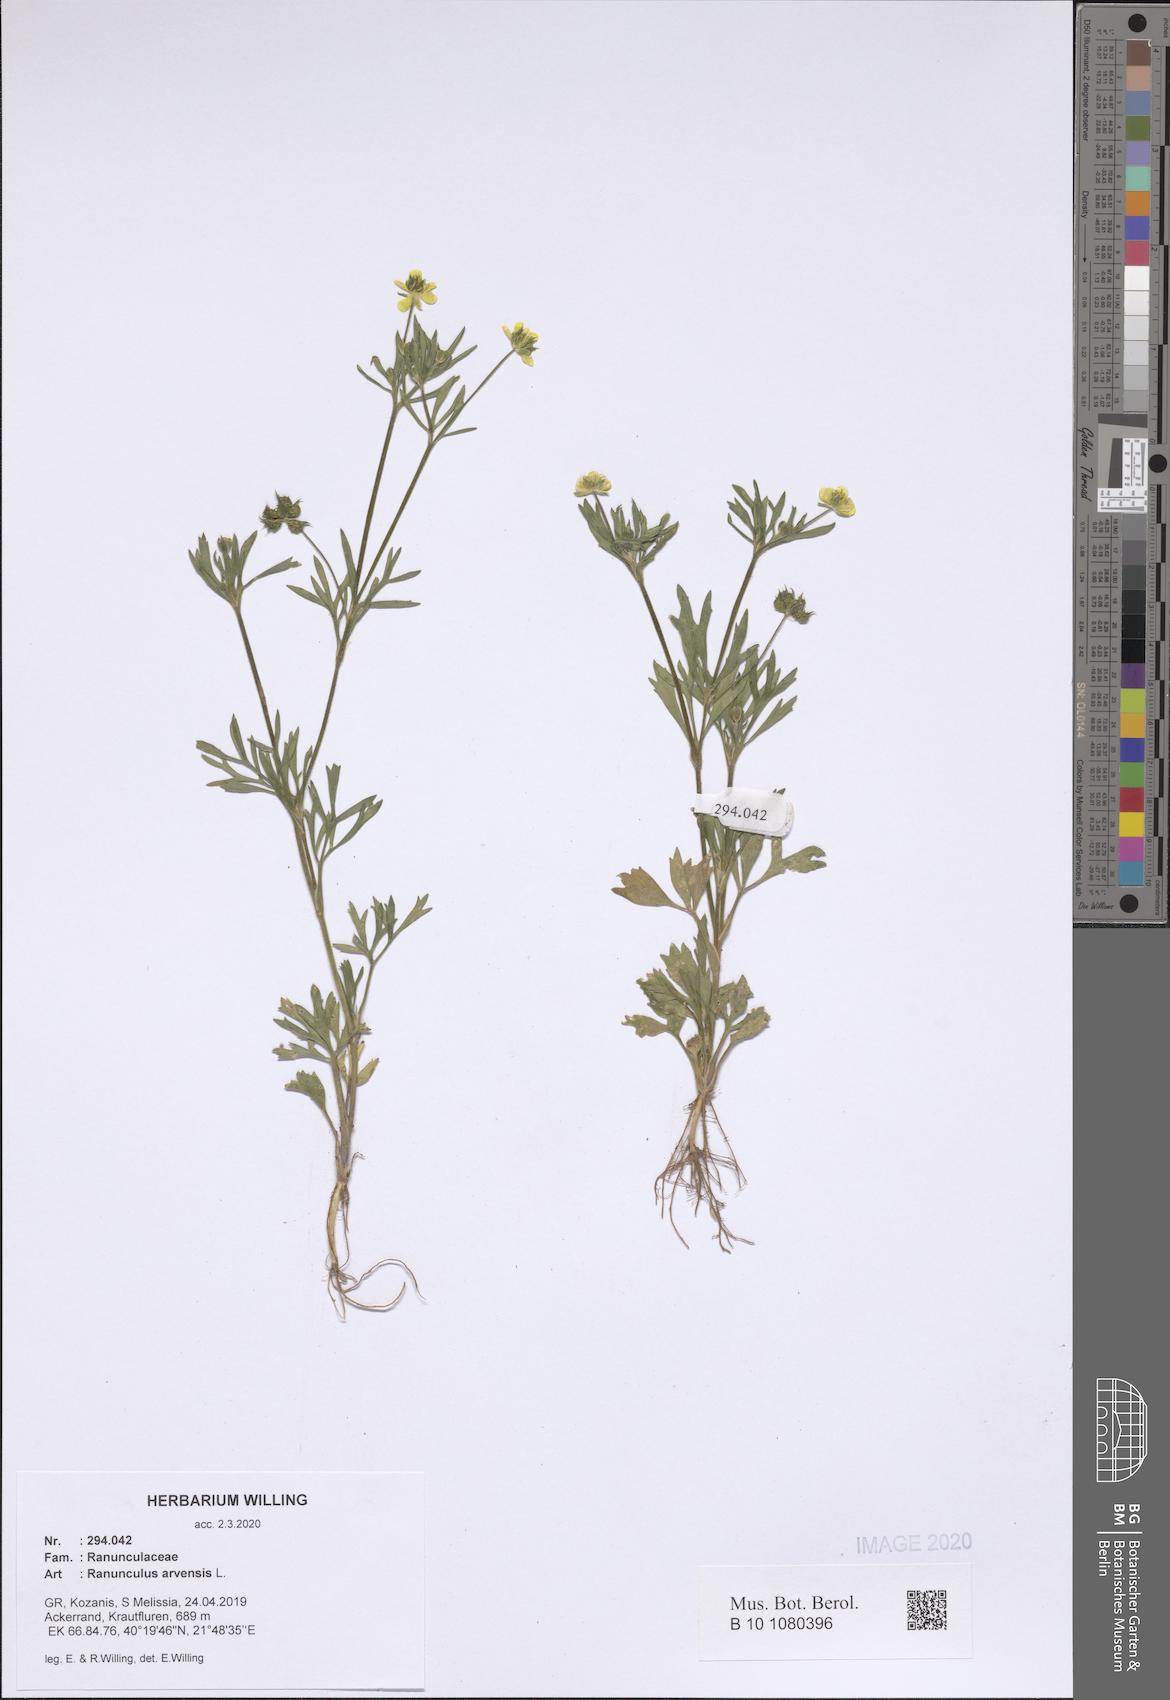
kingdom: Plantae
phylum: Tracheophyta
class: Magnoliopsida
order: Ranunculales
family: Ranunculaceae
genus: Ranunculus
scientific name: Ranunculus arvensis
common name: Corn buttercup
